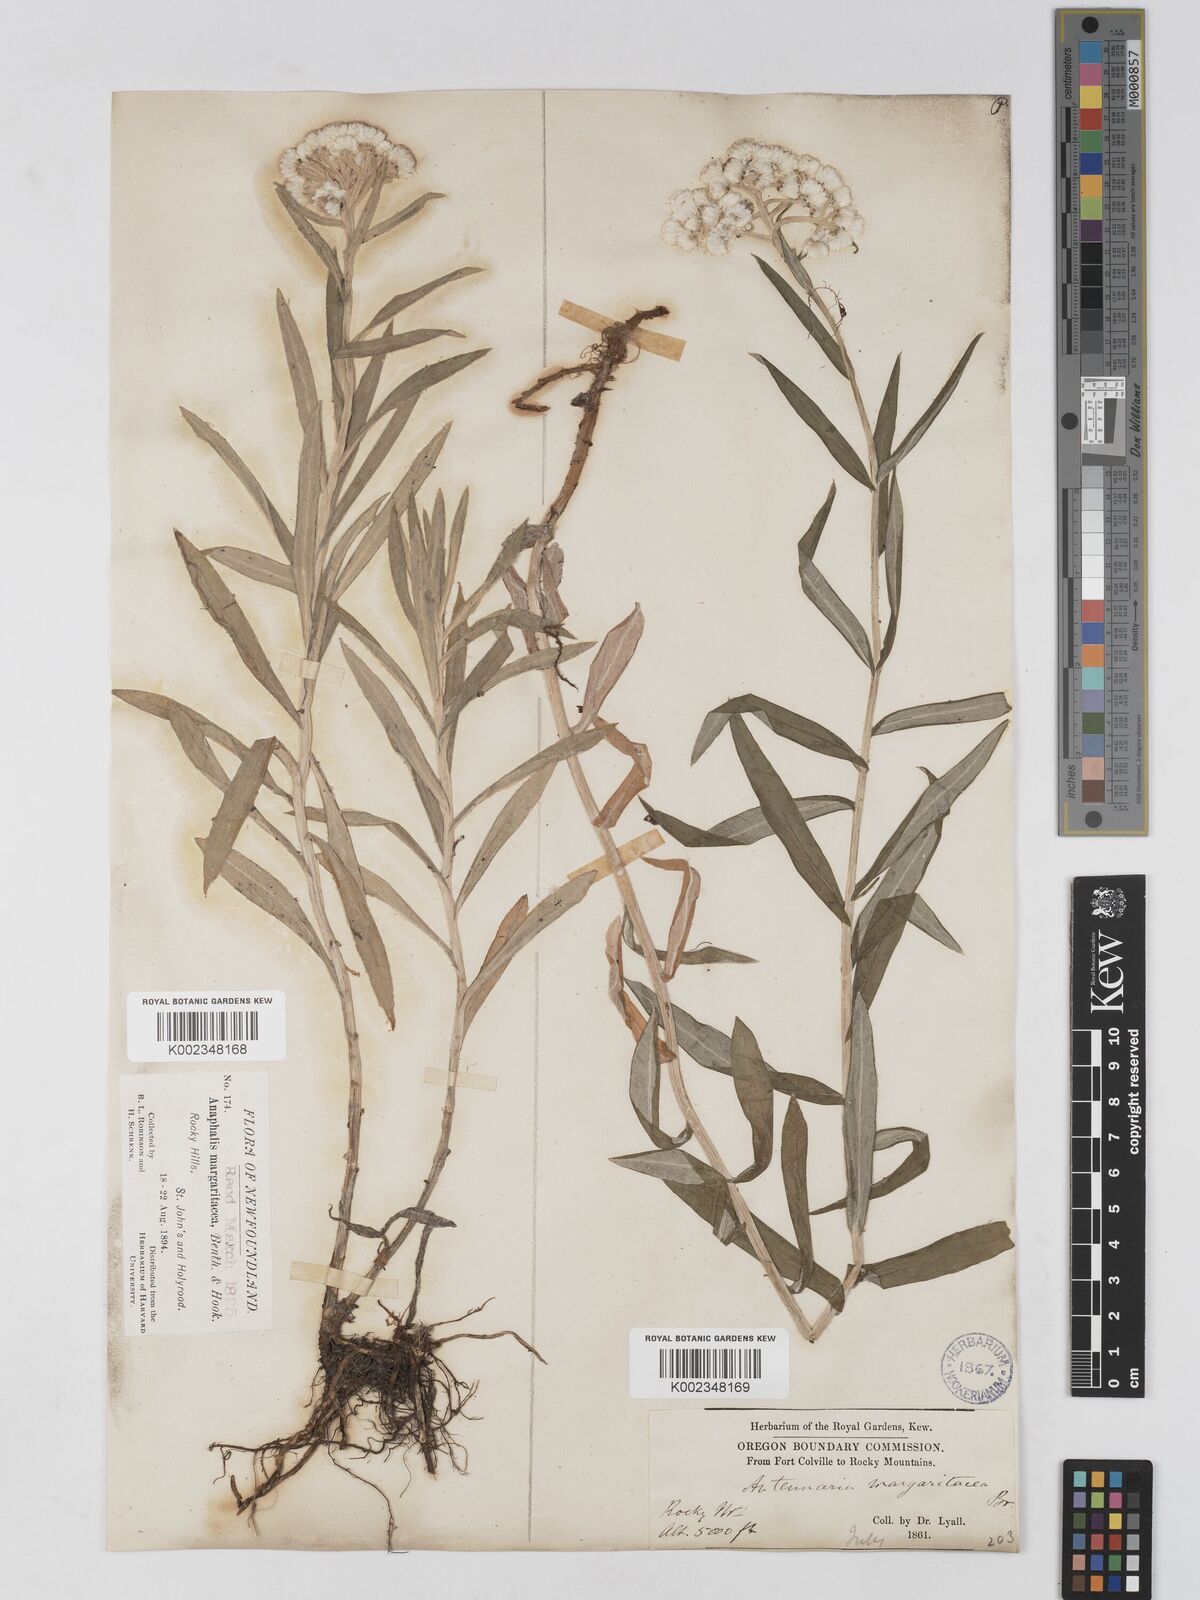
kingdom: Plantae
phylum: Tracheophyta
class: Magnoliopsida
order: Asterales
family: Asteraceae
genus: Anaphalis
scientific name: Anaphalis margaritacea
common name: Pearly everlasting
